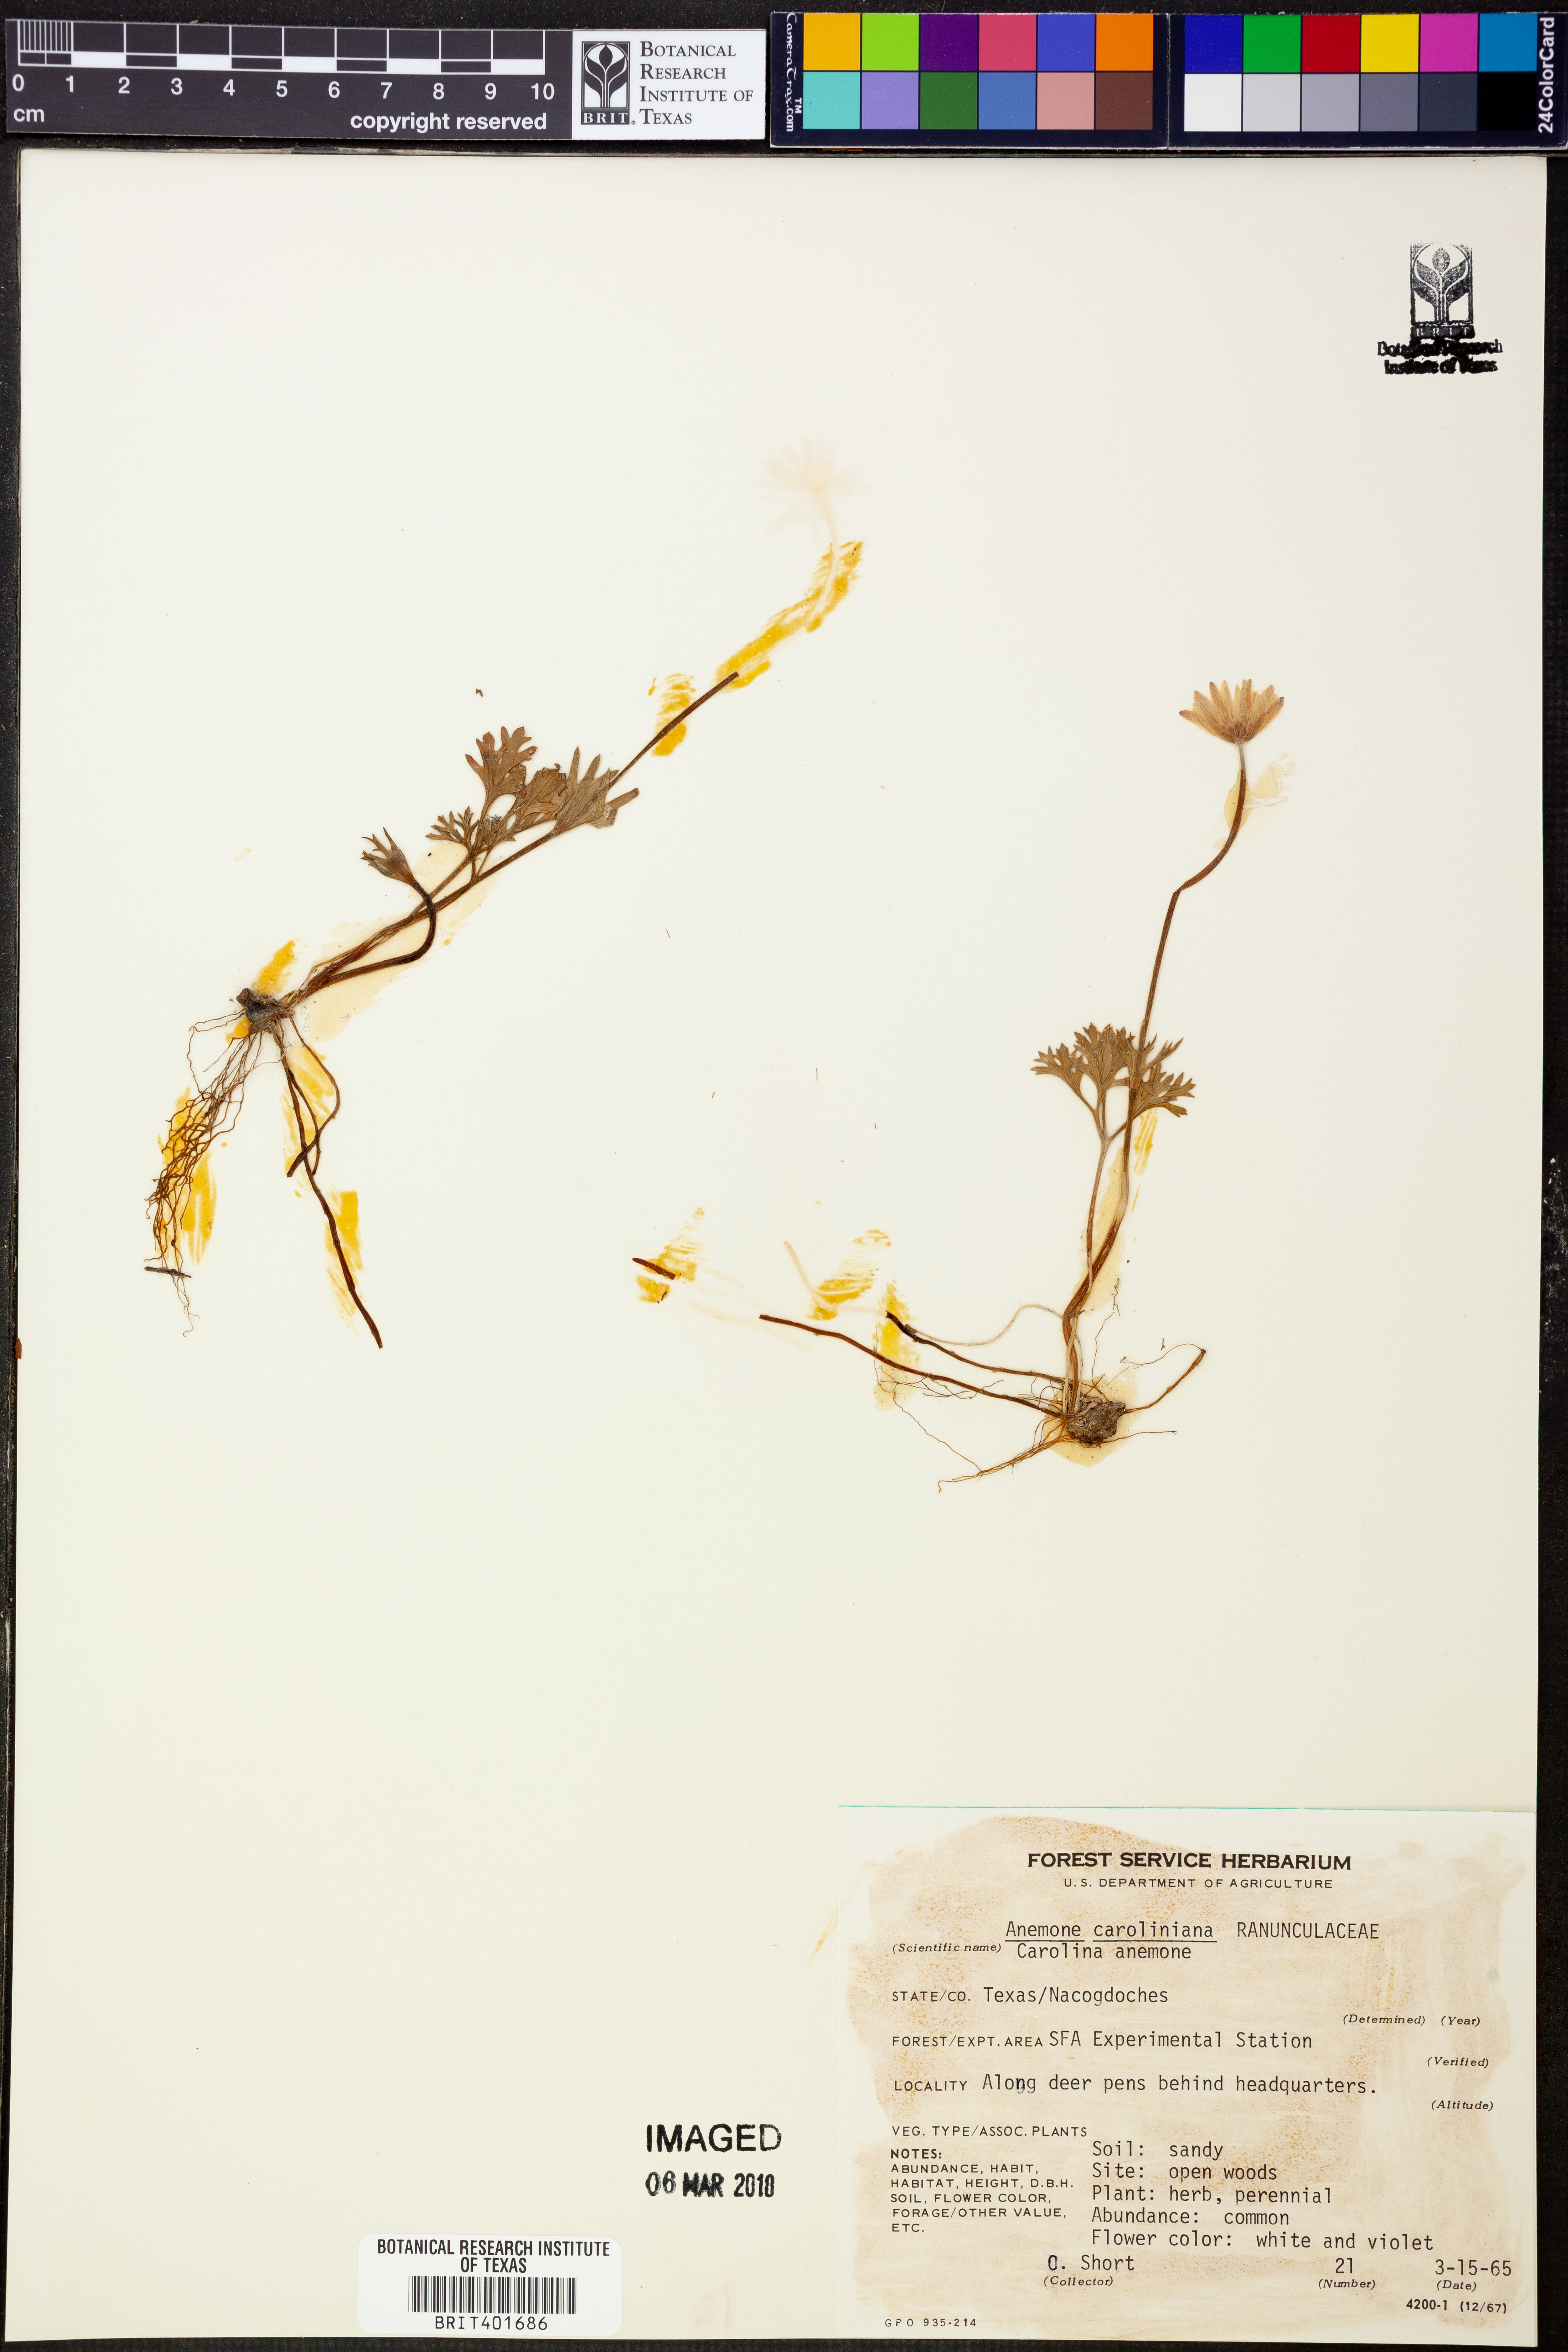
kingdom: Plantae
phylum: Tracheophyta
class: Magnoliopsida
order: Ranunculales
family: Ranunculaceae
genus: Anemone
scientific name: Anemone caroliniana
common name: Carolina anemone
